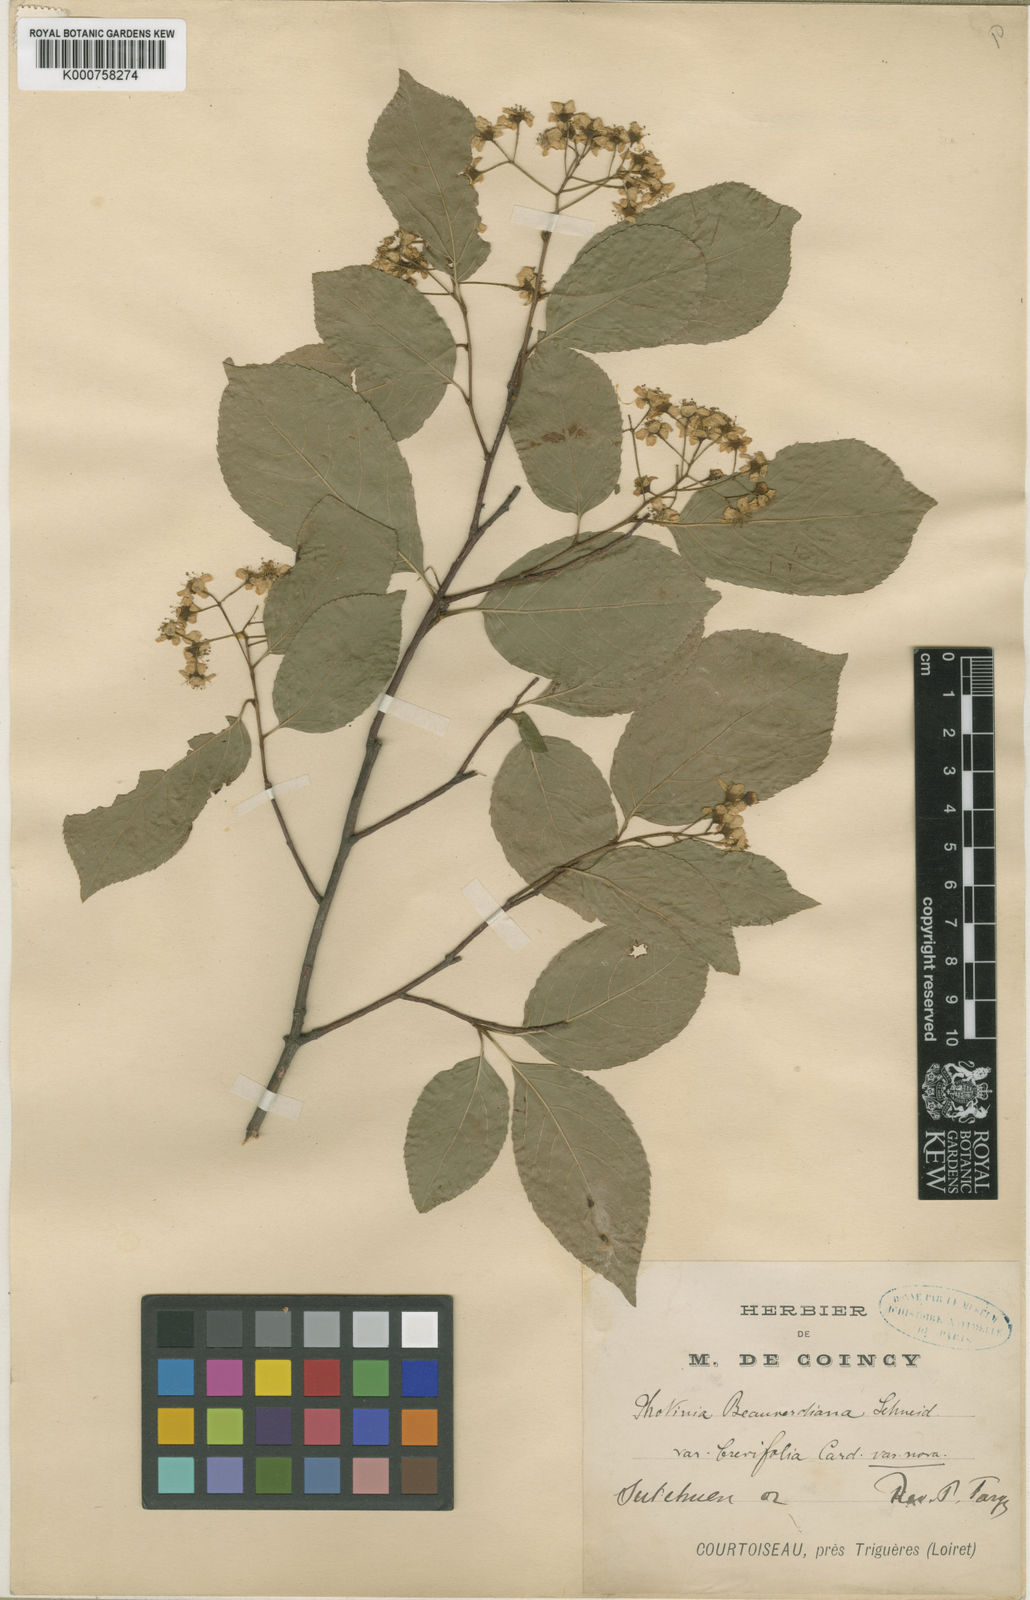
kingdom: Plantae
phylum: Tracheophyta
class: Magnoliopsida
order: Rosales
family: Rosaceae
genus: Pourthiaea
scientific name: Pourthiaea beauverdiana
